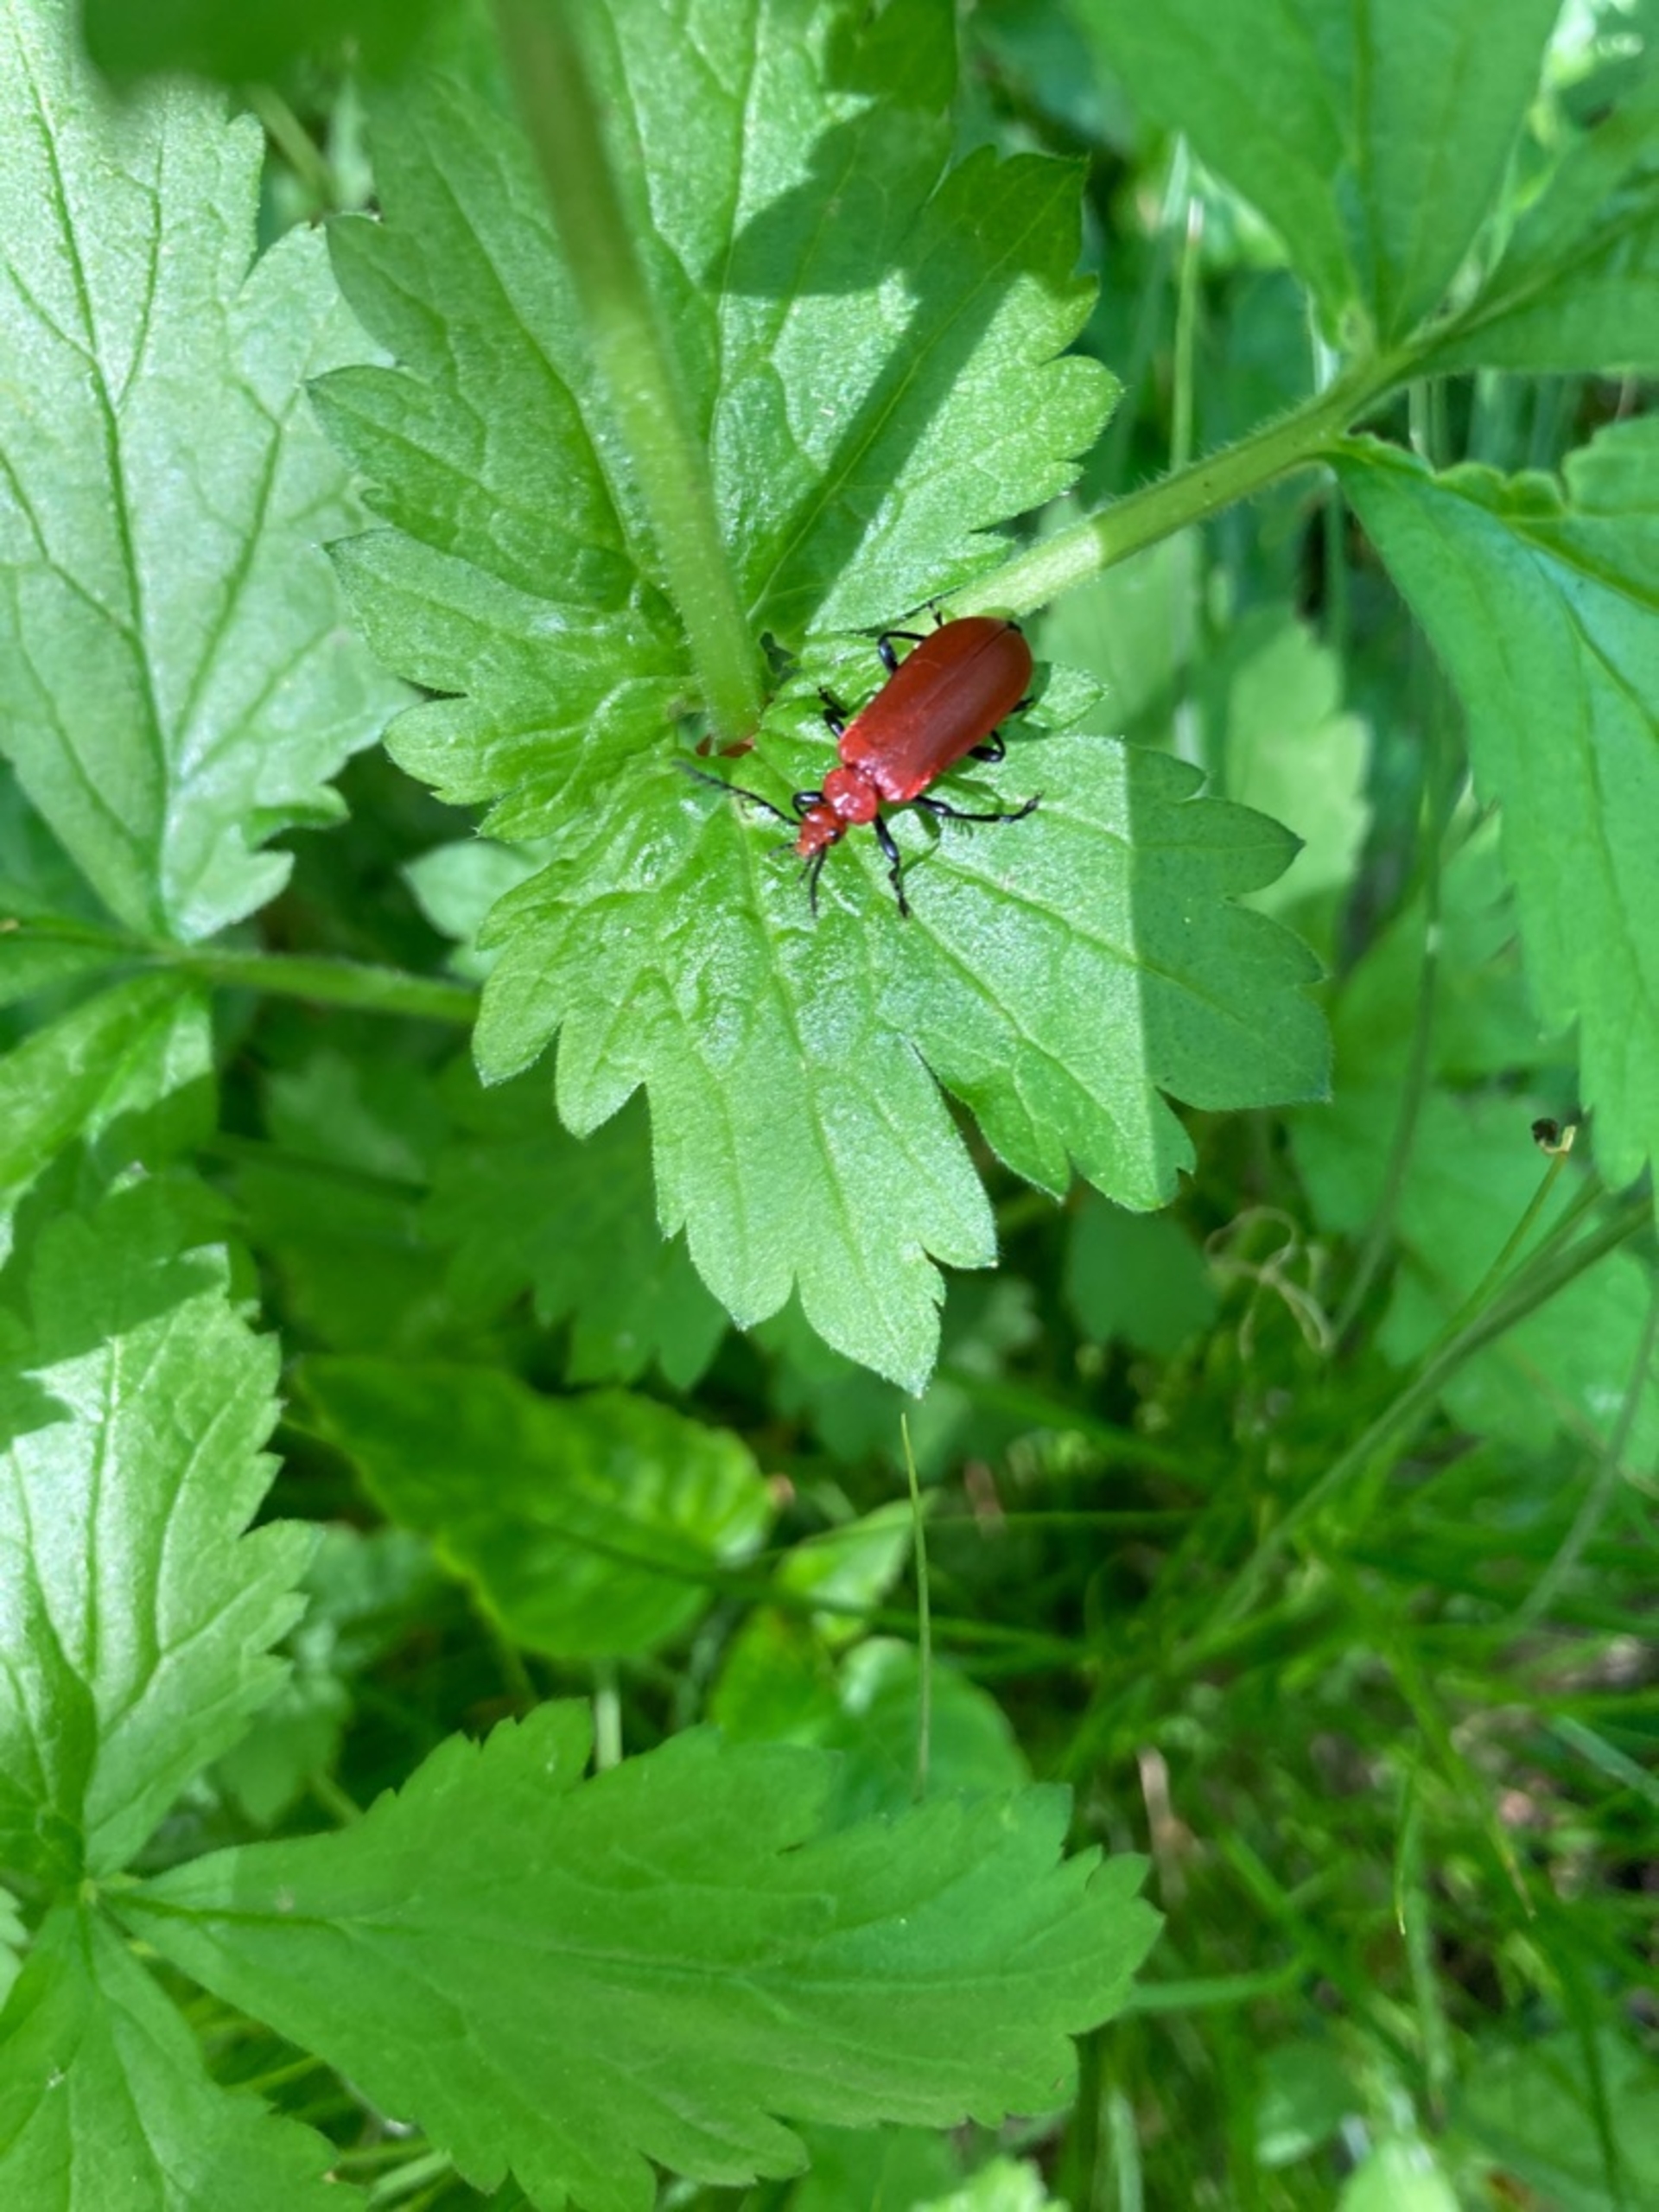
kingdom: Animalia
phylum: Arthropoda
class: Insecta
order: Coleoptera
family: Pyrochroidae
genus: Pyrochroa
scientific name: Pyrochroa serraticornis
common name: Rødhovedet kardinalbille
